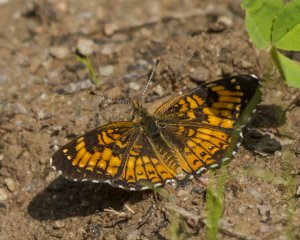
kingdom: Animalia
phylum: Arthropoda
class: Insecta
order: Lepidoptera
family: Nymphalidae
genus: Chlosyne
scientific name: Chlosyne harrisii
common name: Harris's Checkerspot
